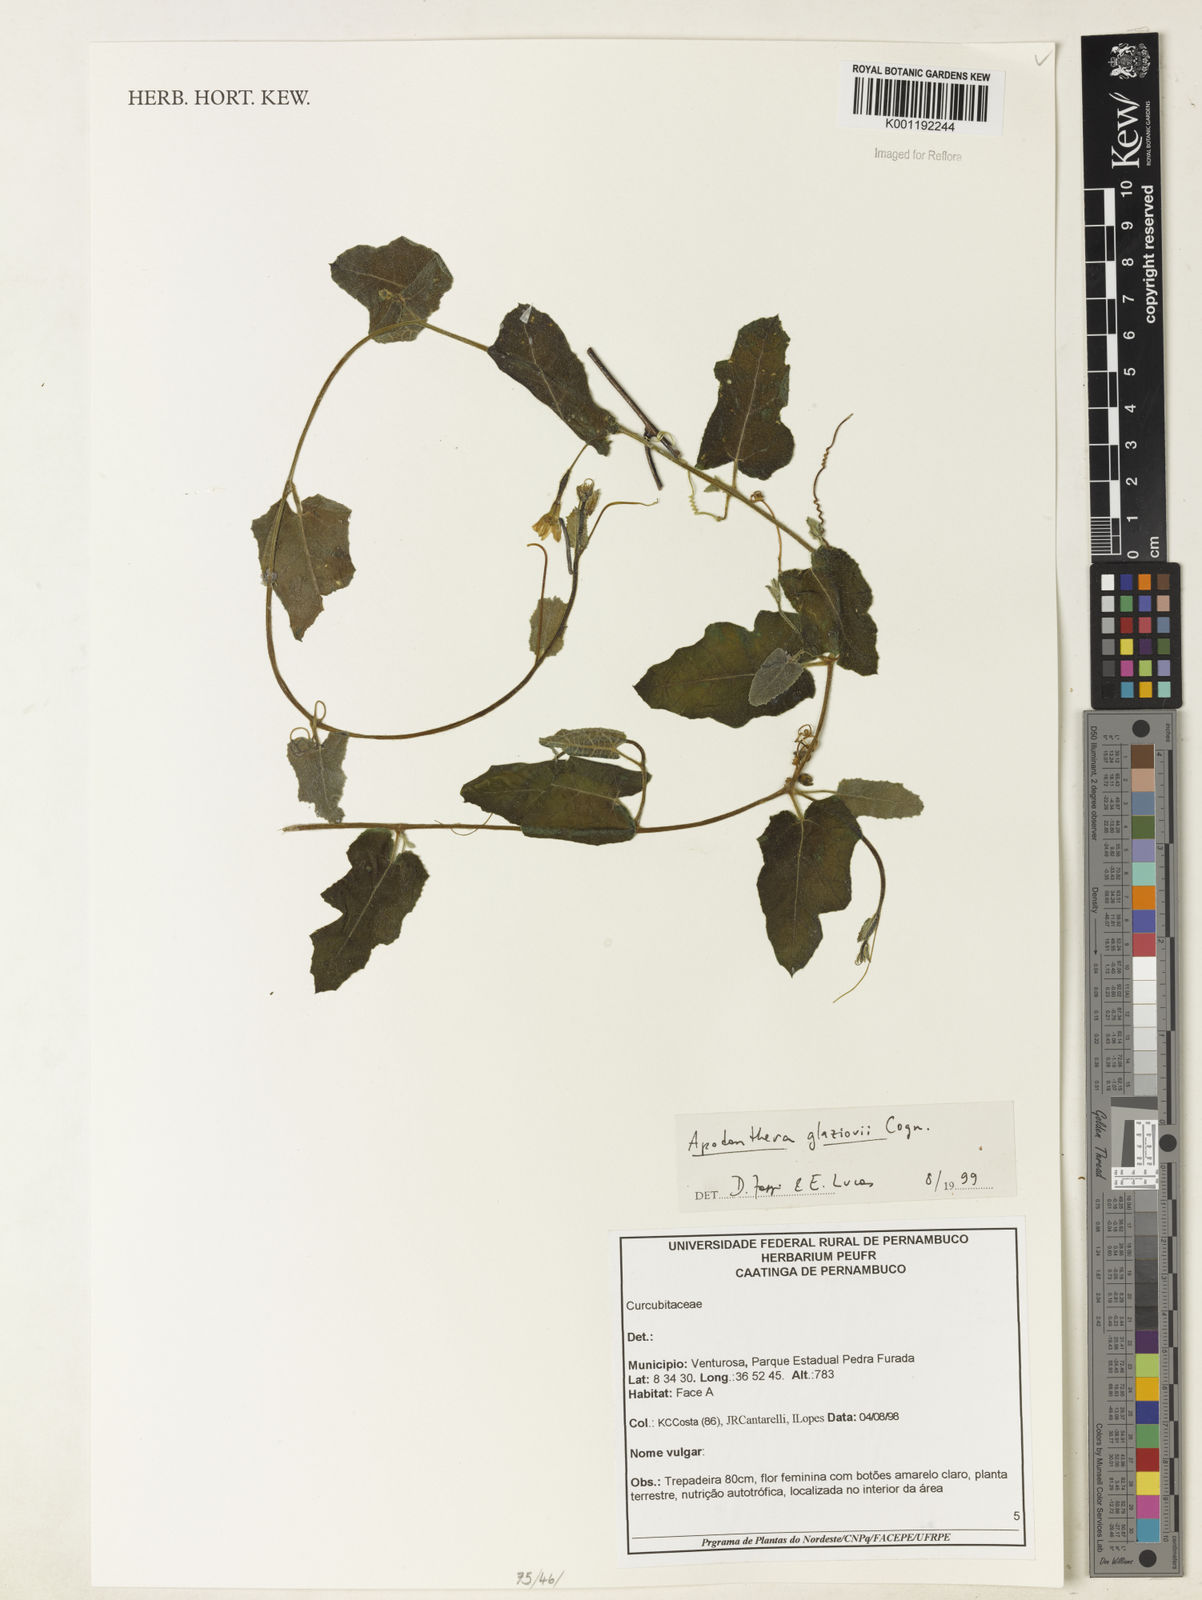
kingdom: Plantae
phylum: Tracheophyta
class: Magnoliopsida
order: Cucurbitales
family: Cucurbitaceae
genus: Apodanthera
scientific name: Apodanthera glaziovii
